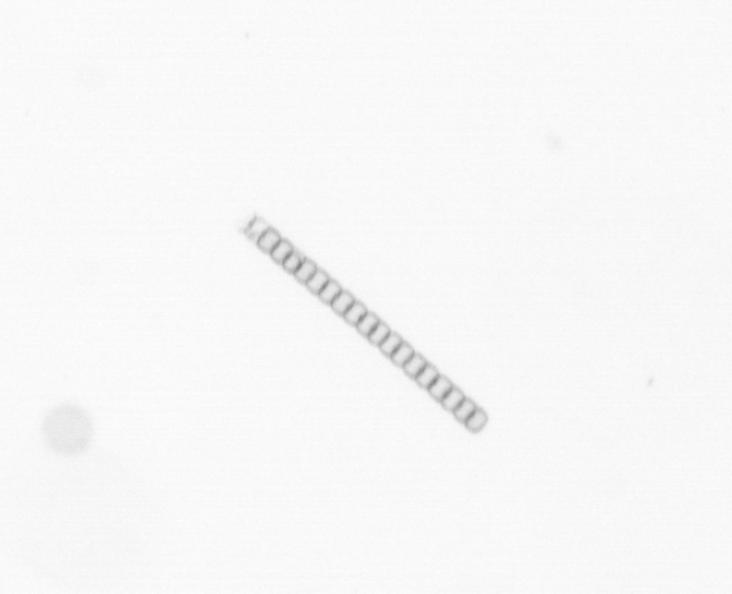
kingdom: Chromista
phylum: Ochrophyta
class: Bacillariophyceae
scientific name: Bacillariophyceae
